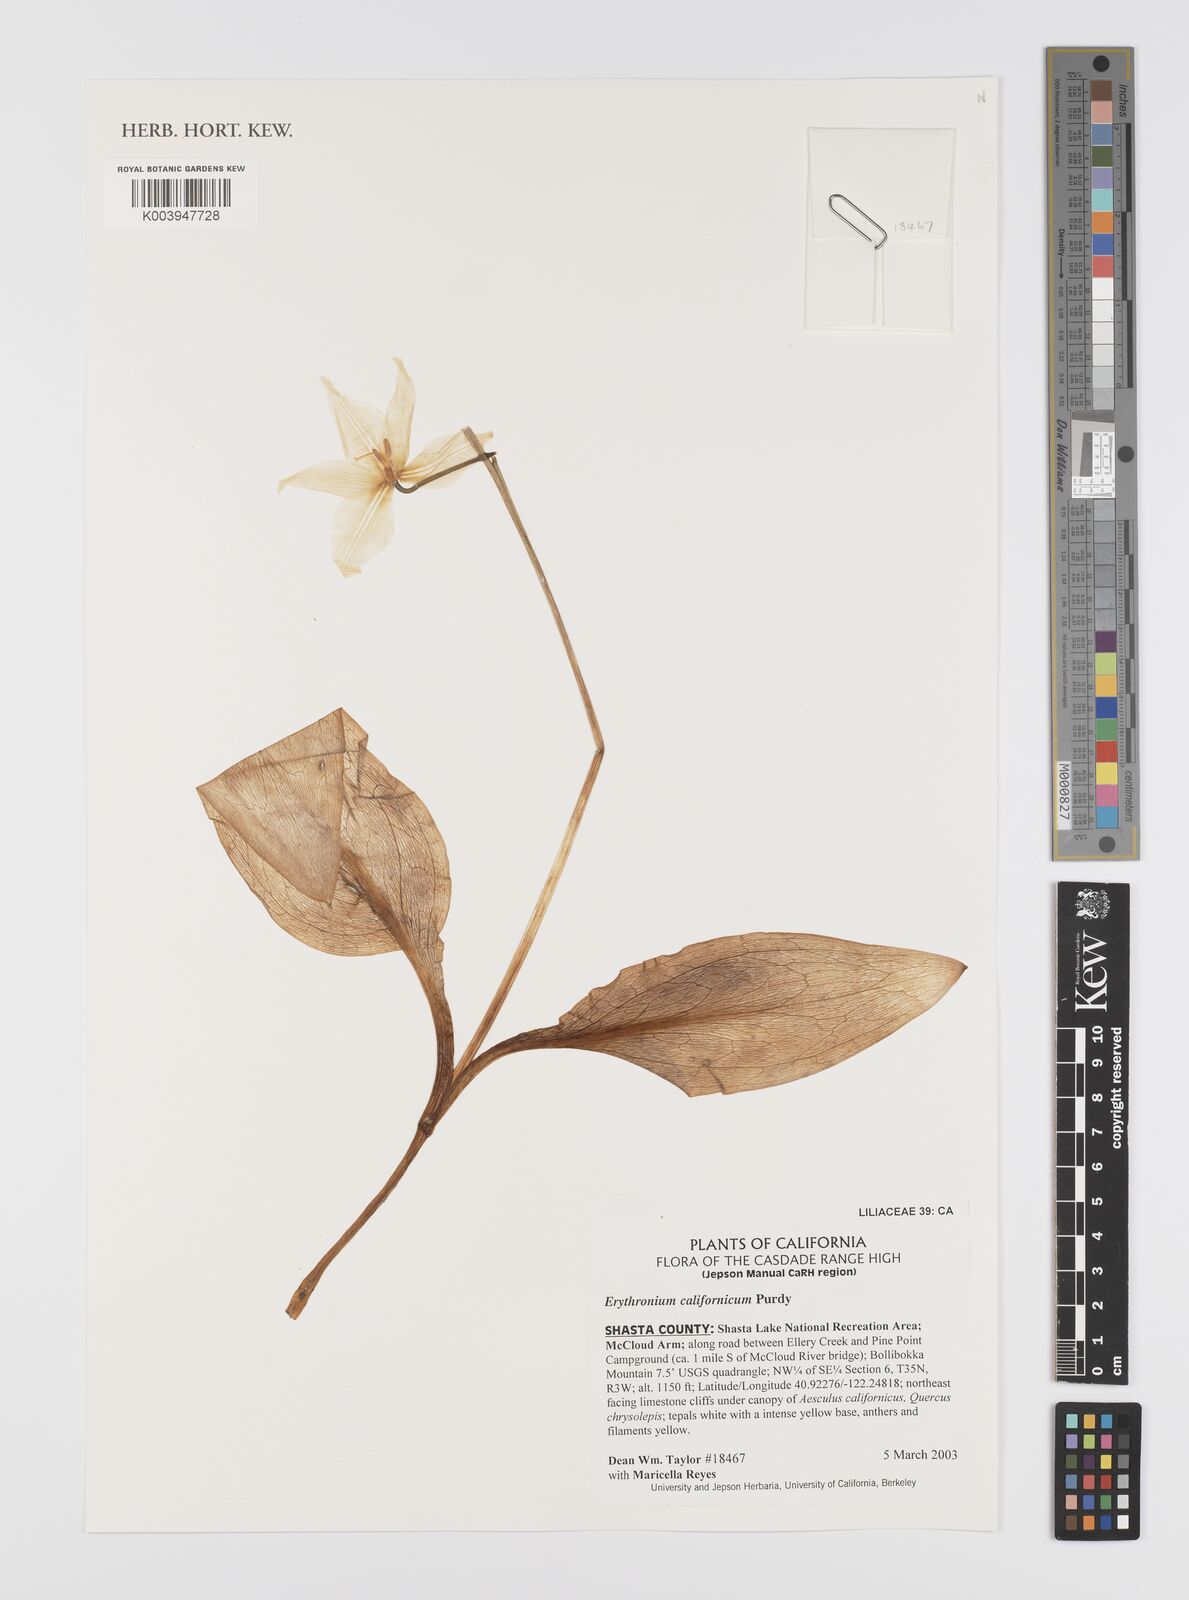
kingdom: Plantae
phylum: Tracheophyta
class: Liliopsida
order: Liliales
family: Liliaceae
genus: Erythronium
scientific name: Erythronium californicum
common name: Fawn-lily
